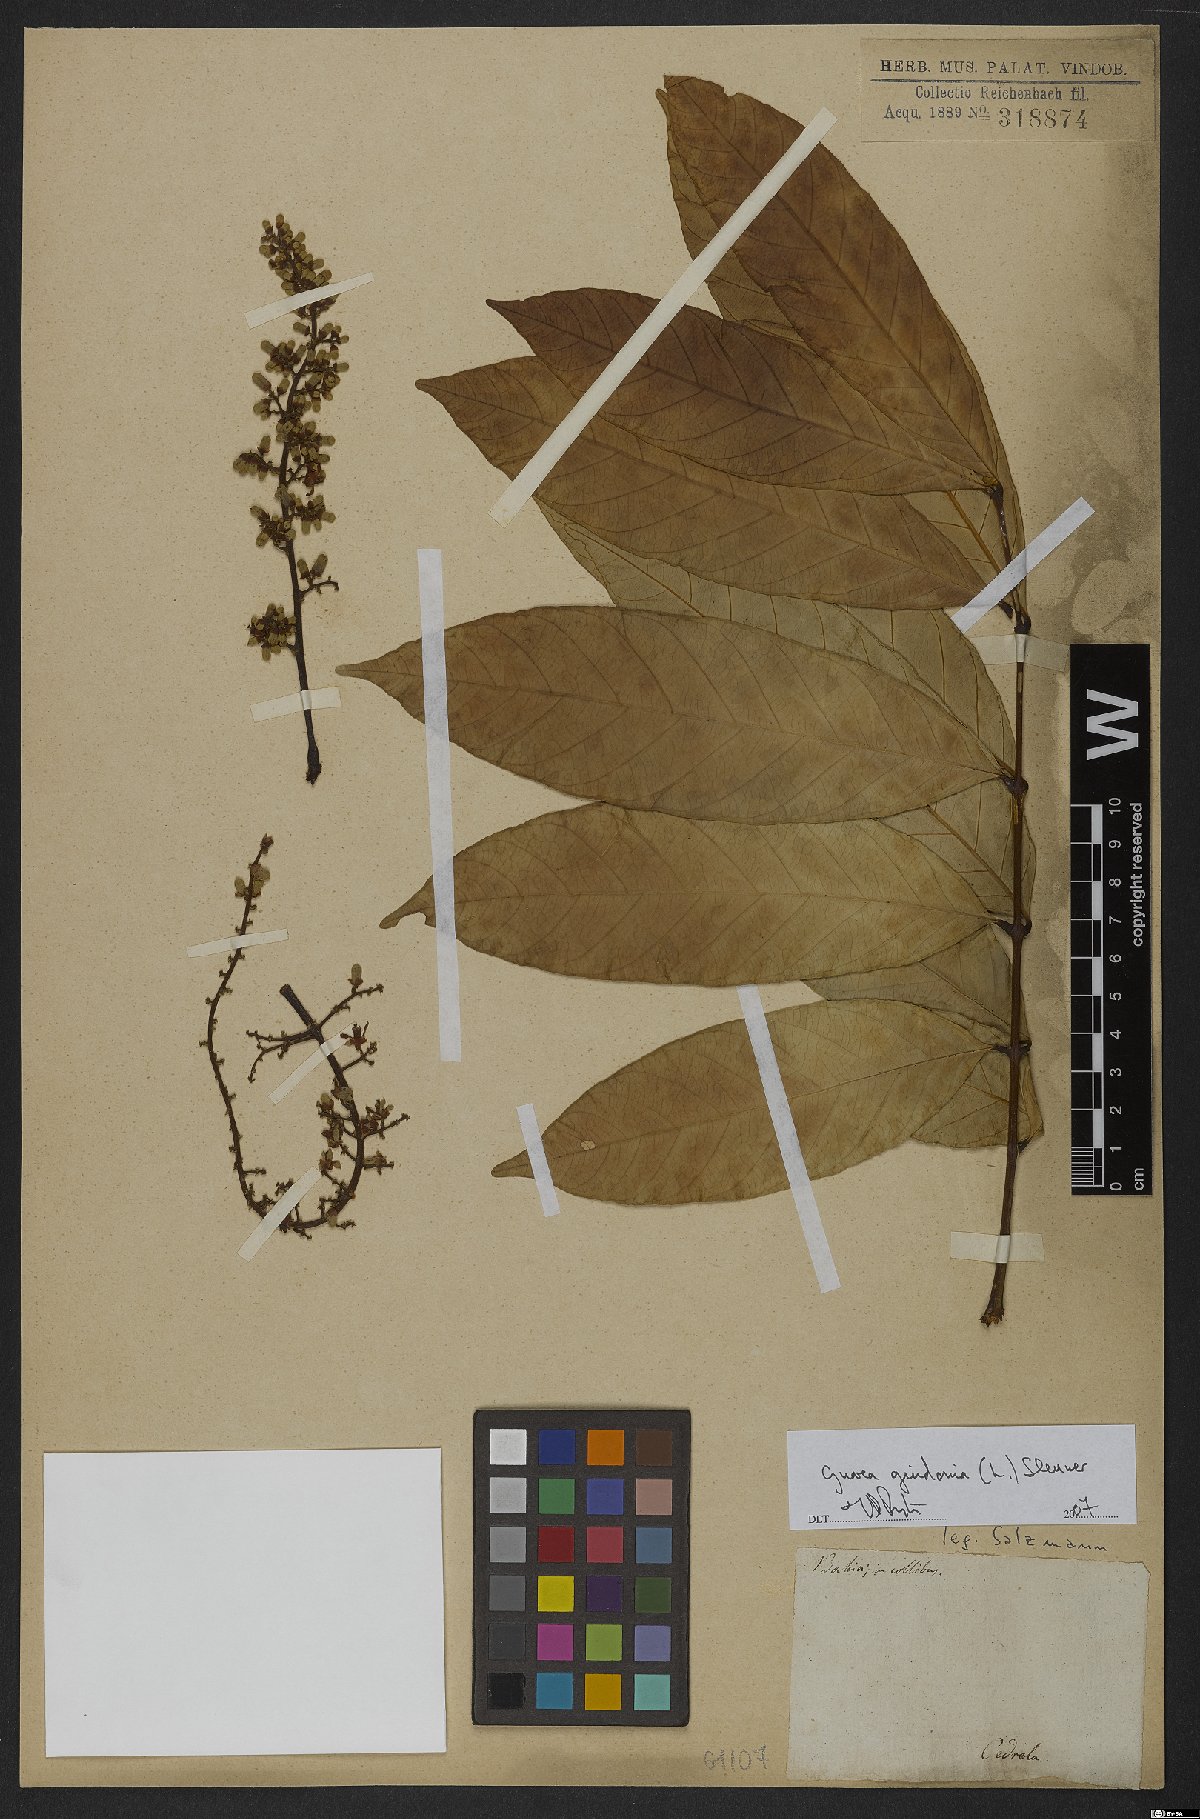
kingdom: Plantae
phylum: Tracheophyta
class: Magnoliopsida
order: Sapindales
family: Meliaceae
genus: Guarea
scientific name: Guarea guidonia
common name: American muskwood
